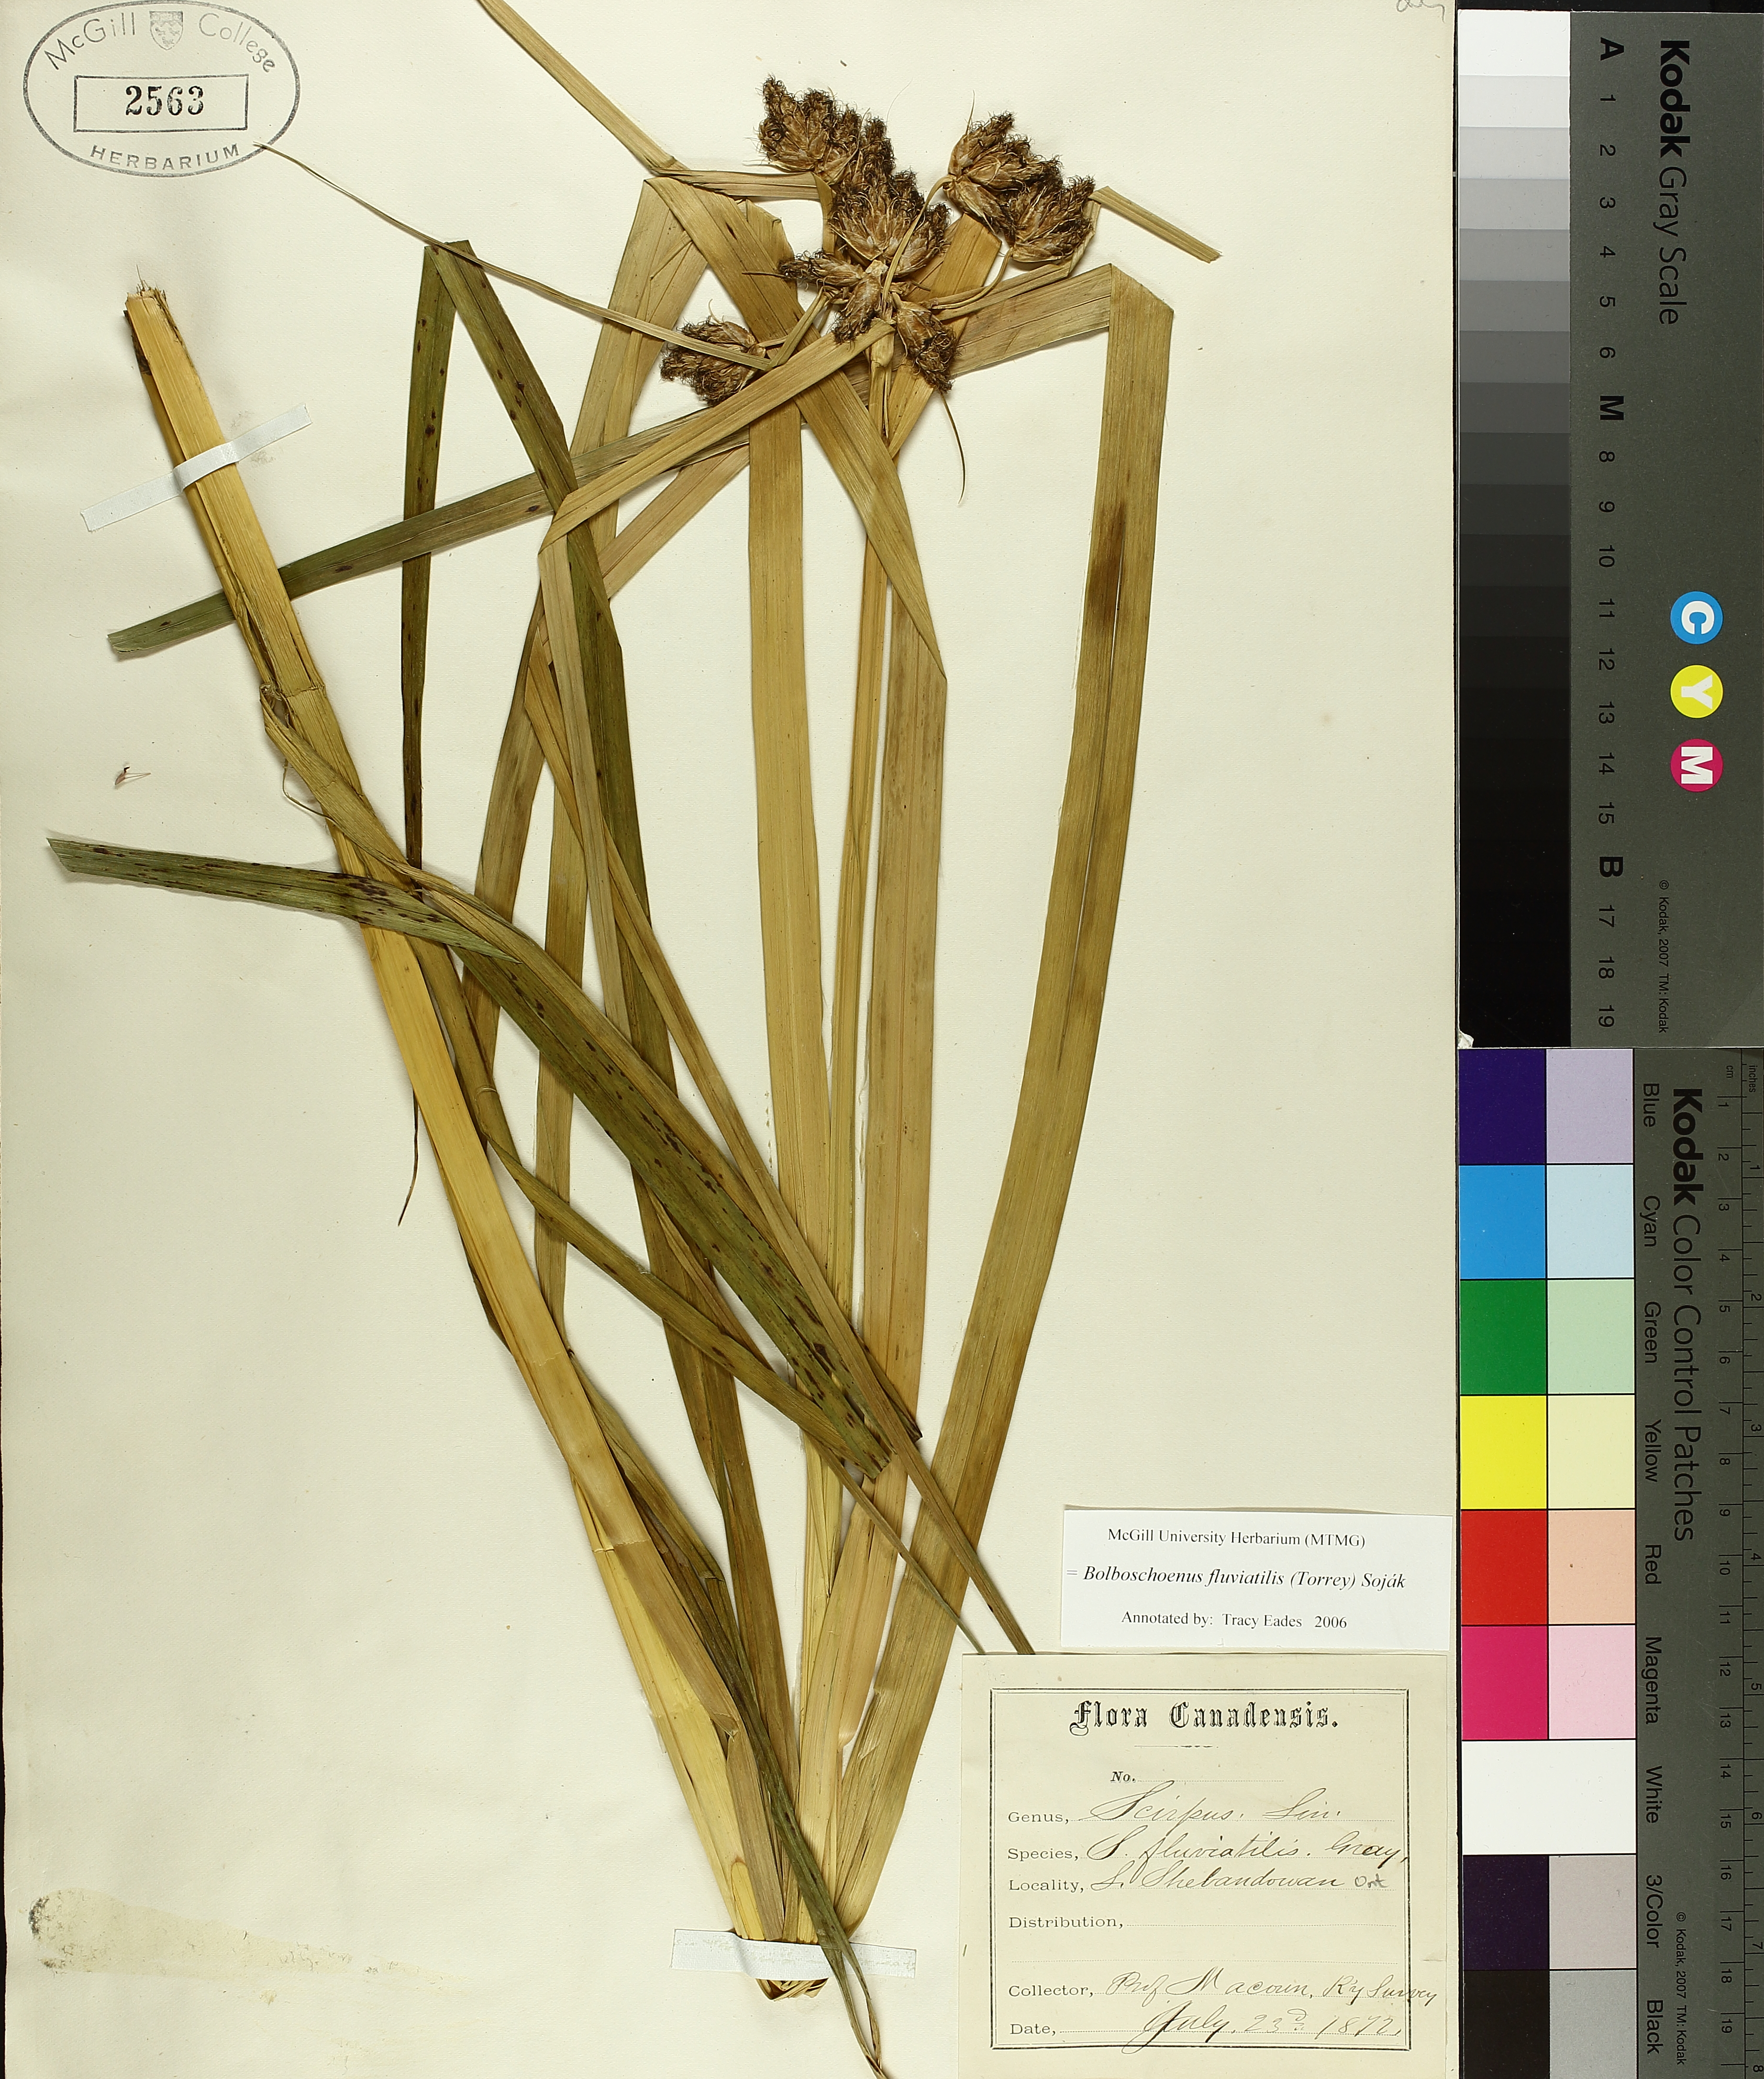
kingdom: Plantae
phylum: Tracheophyta
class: Liliopsida
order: Poales
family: Cyperaceae
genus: Bolboschoenus
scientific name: Bolboschoenus fluviatilis
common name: River bulrush
